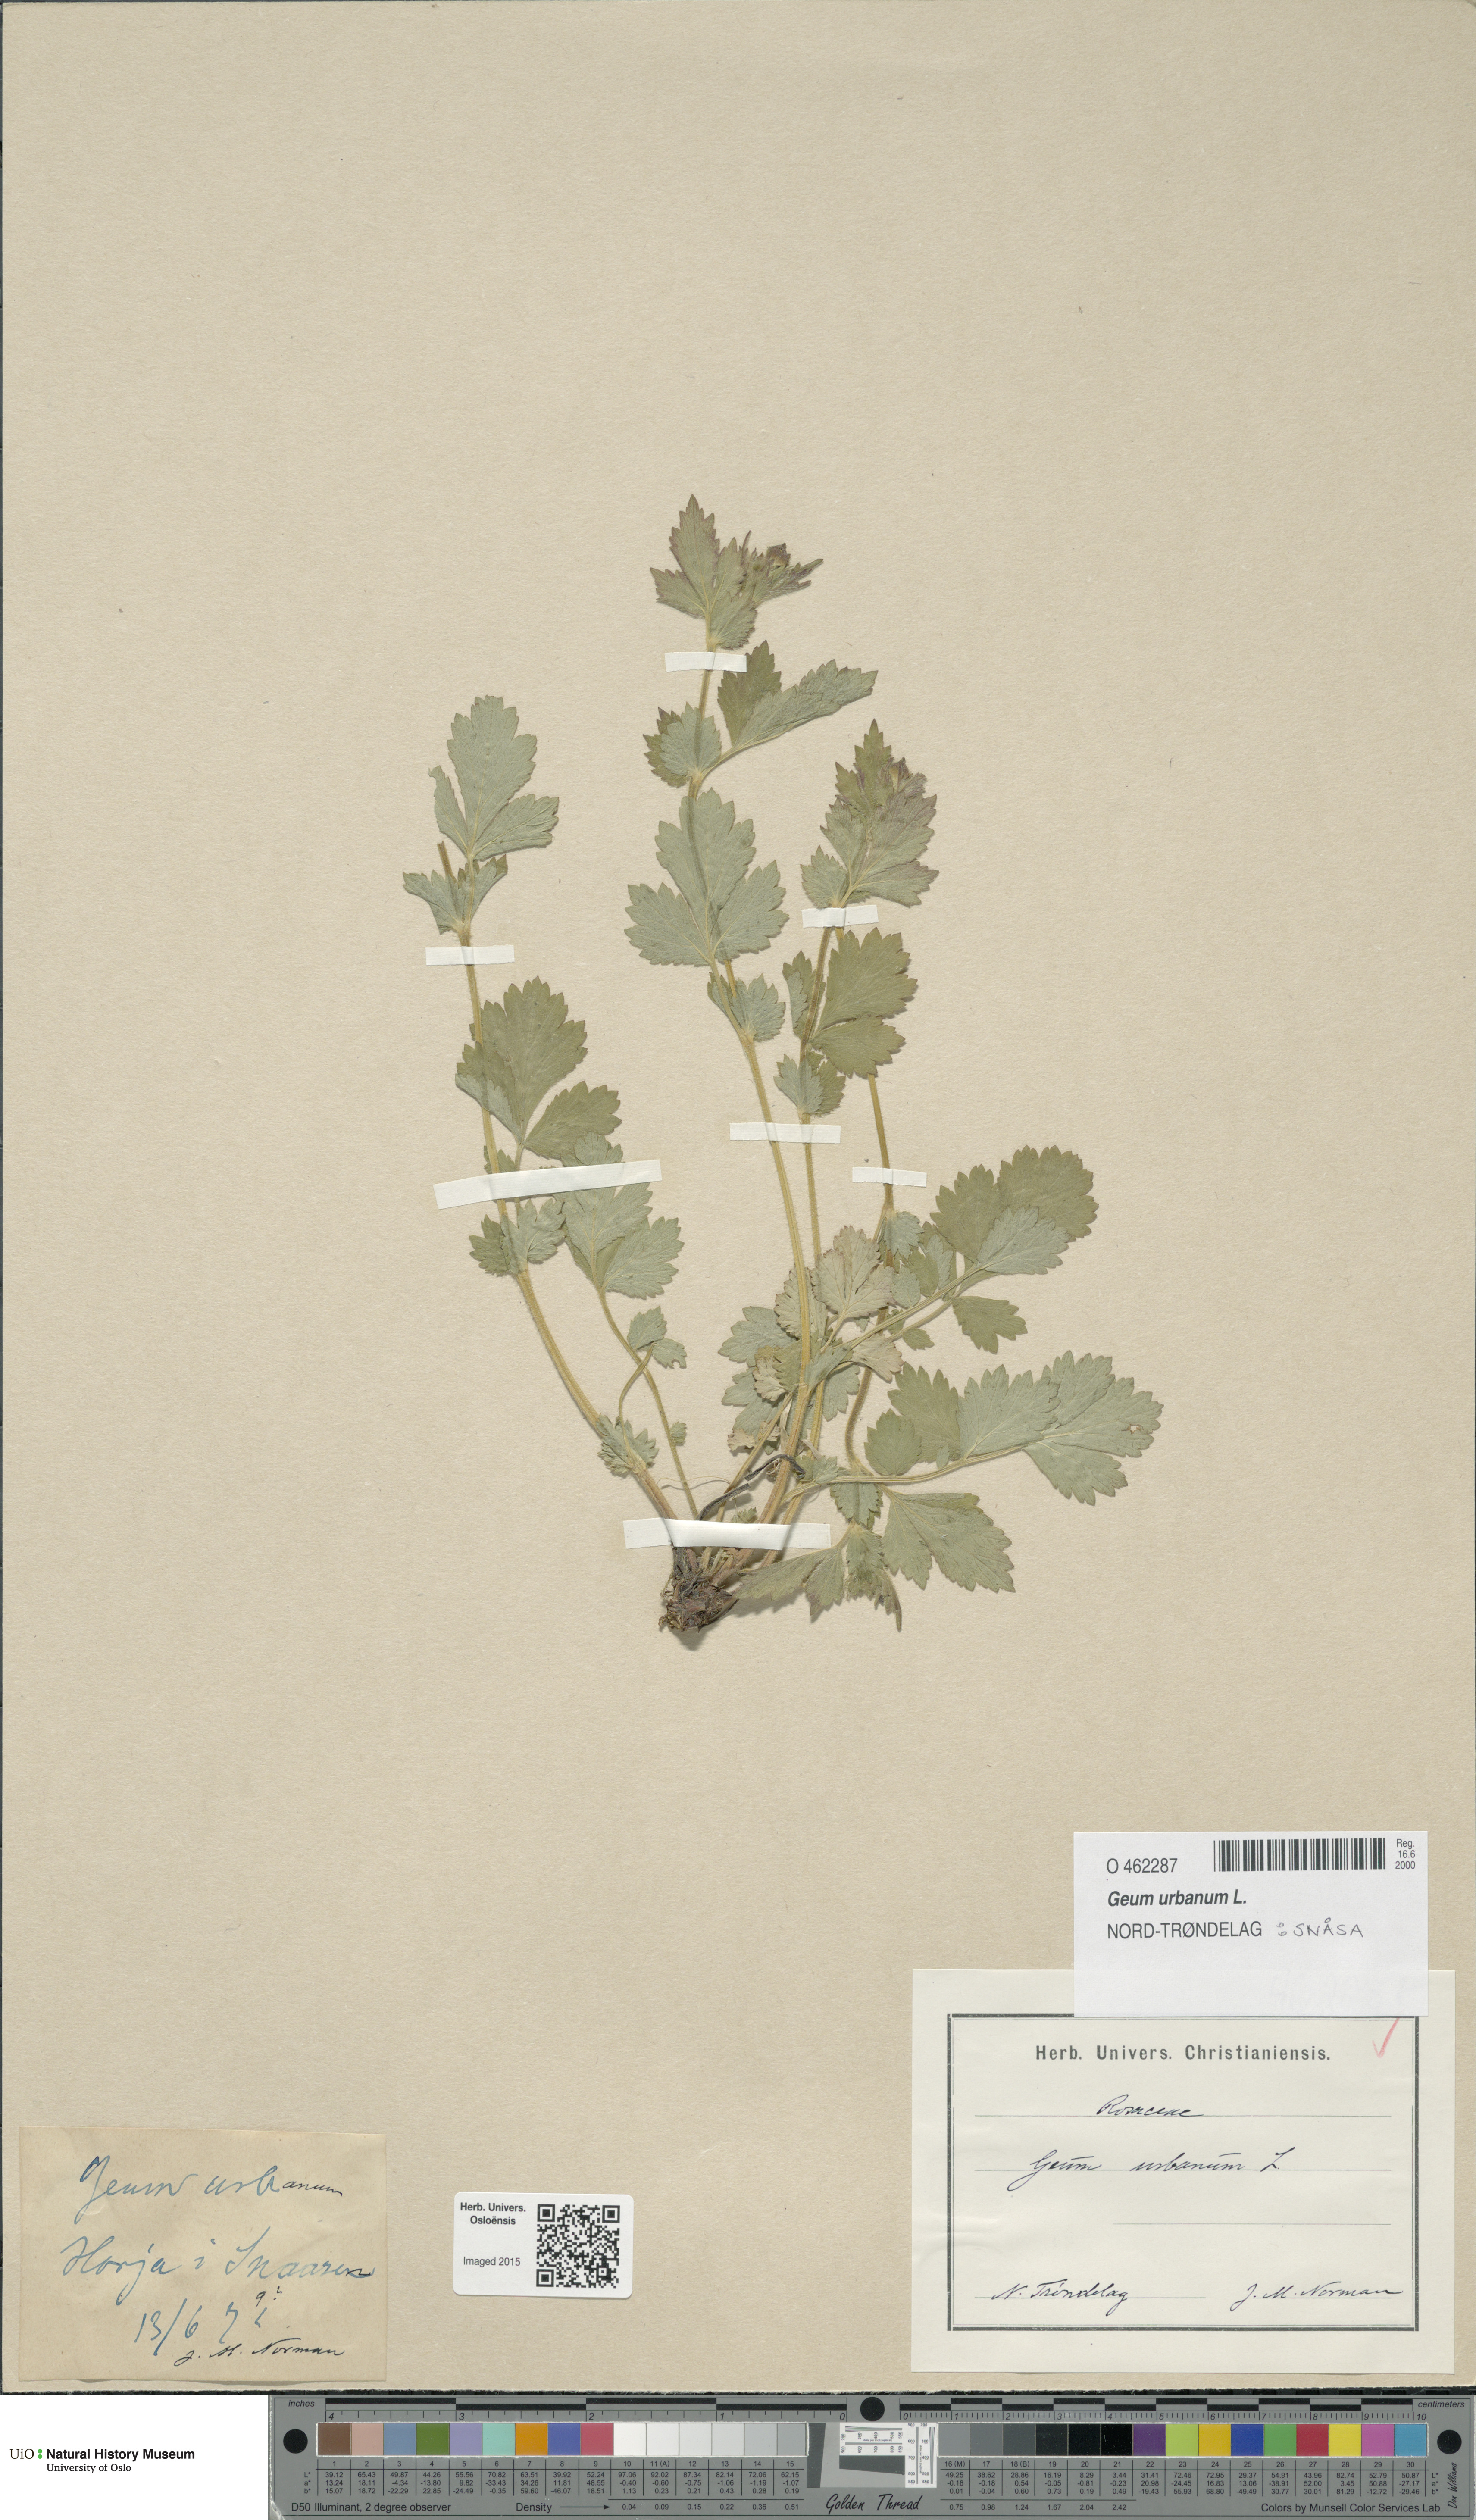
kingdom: Plantae
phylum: Tracheophyta
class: Magnoliopsida
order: Rosales
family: Rosaceae
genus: Geum
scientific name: Geum urbanum
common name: Wood avens
